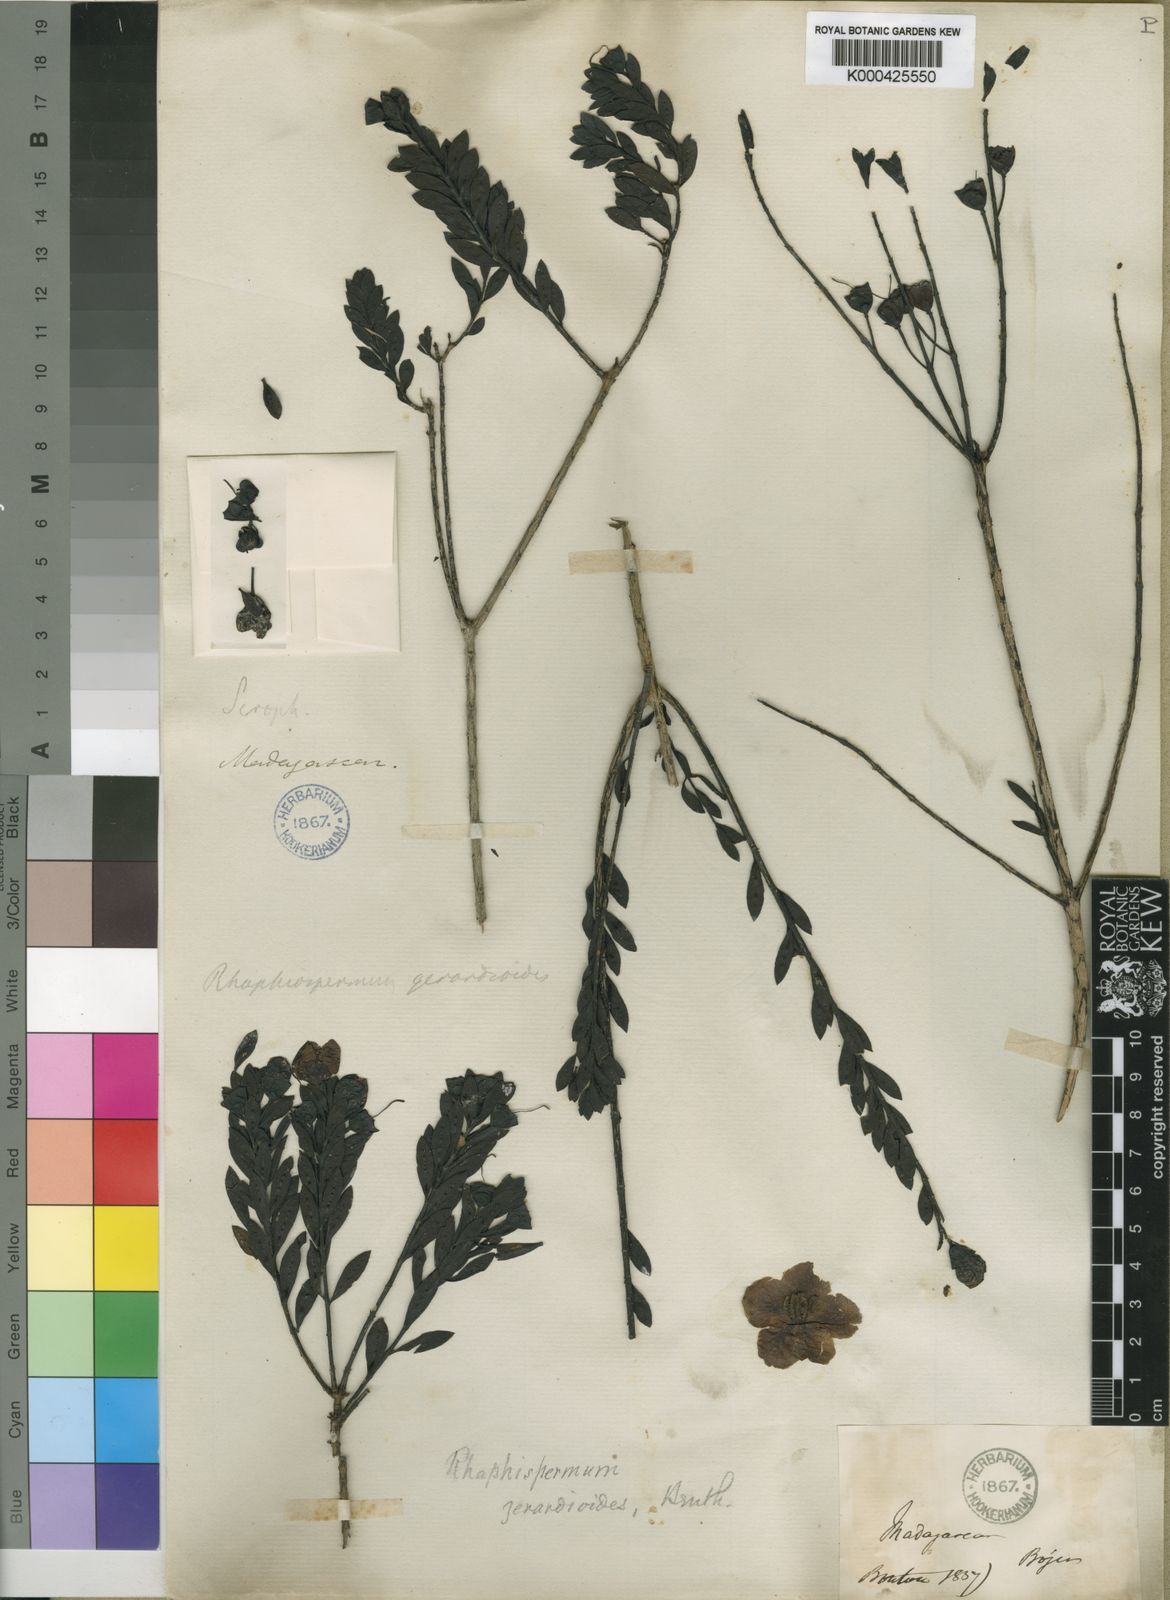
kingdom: Plantae
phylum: Tracheophyta
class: Magnoliopsida
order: Lamiales
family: Orobanchaceae
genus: Rhaphispermum
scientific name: Rhaphispermum gerardioides
